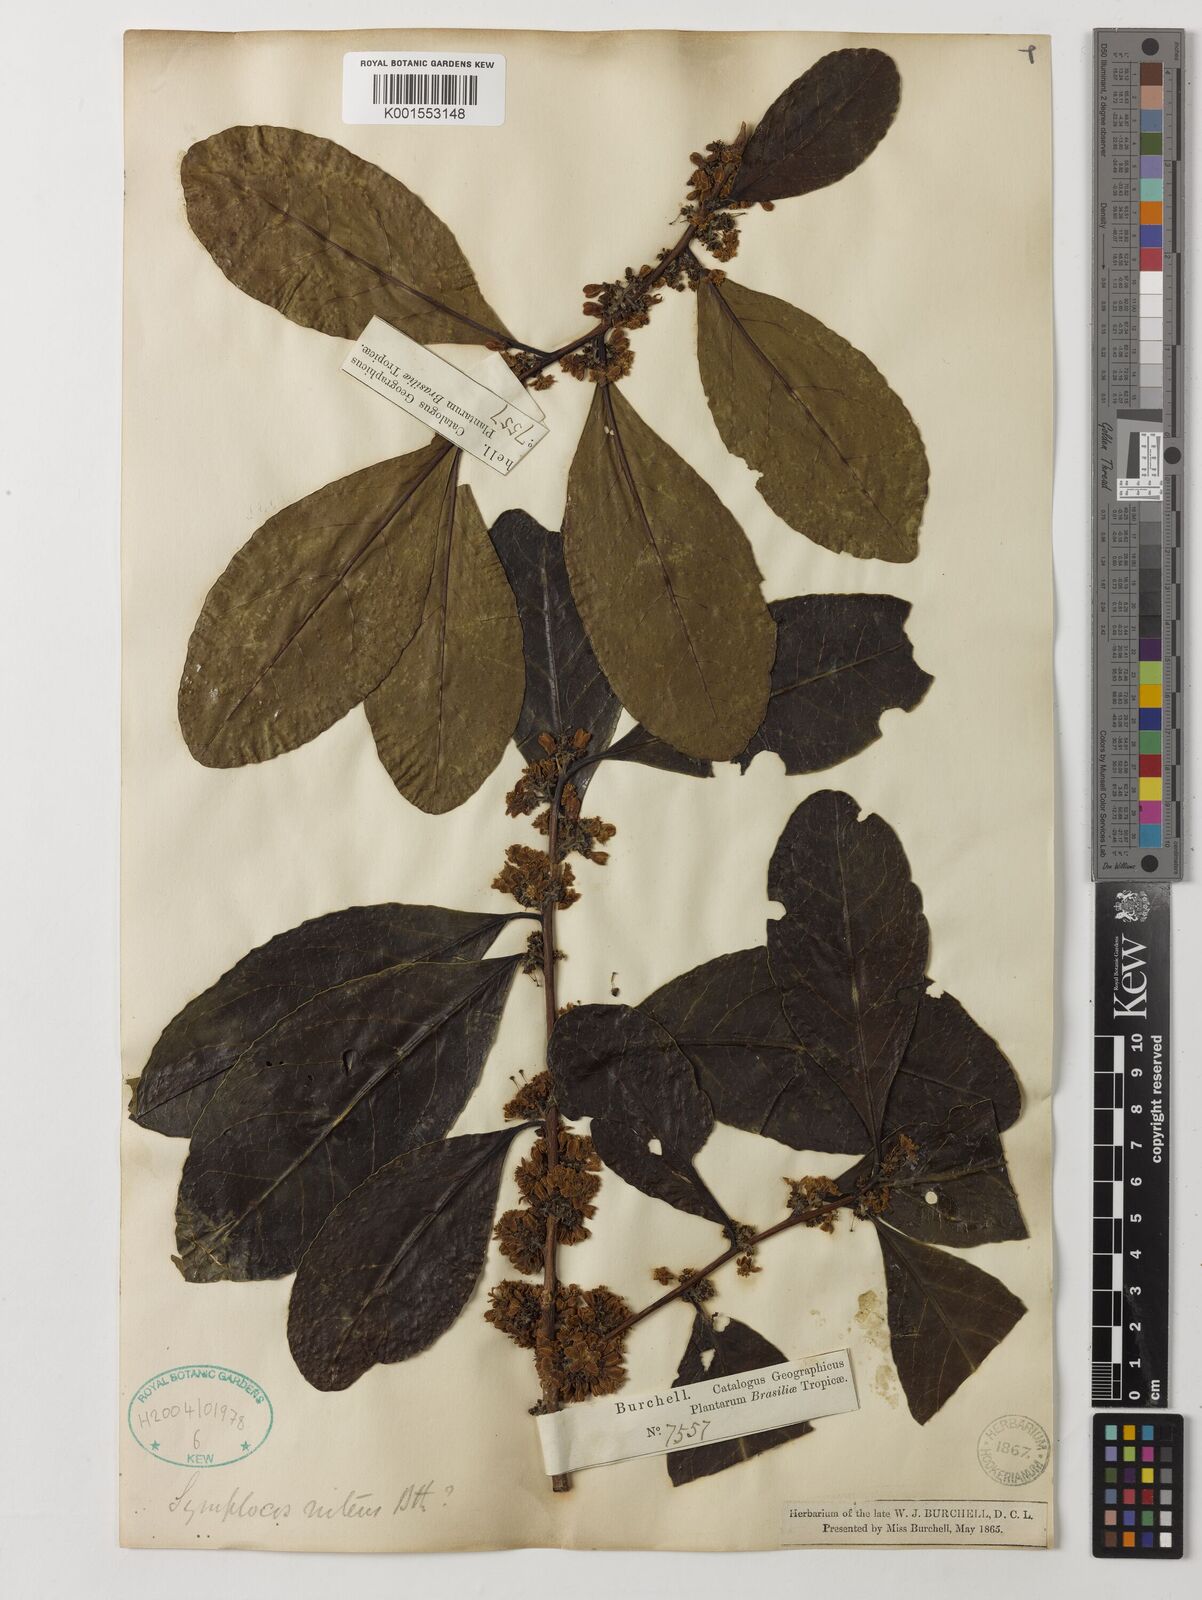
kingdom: Plantae
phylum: Tracheophyta
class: Magnoliopsida
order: Ericales
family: Symplocaceae
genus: Symplocos
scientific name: Symplocos nitens
